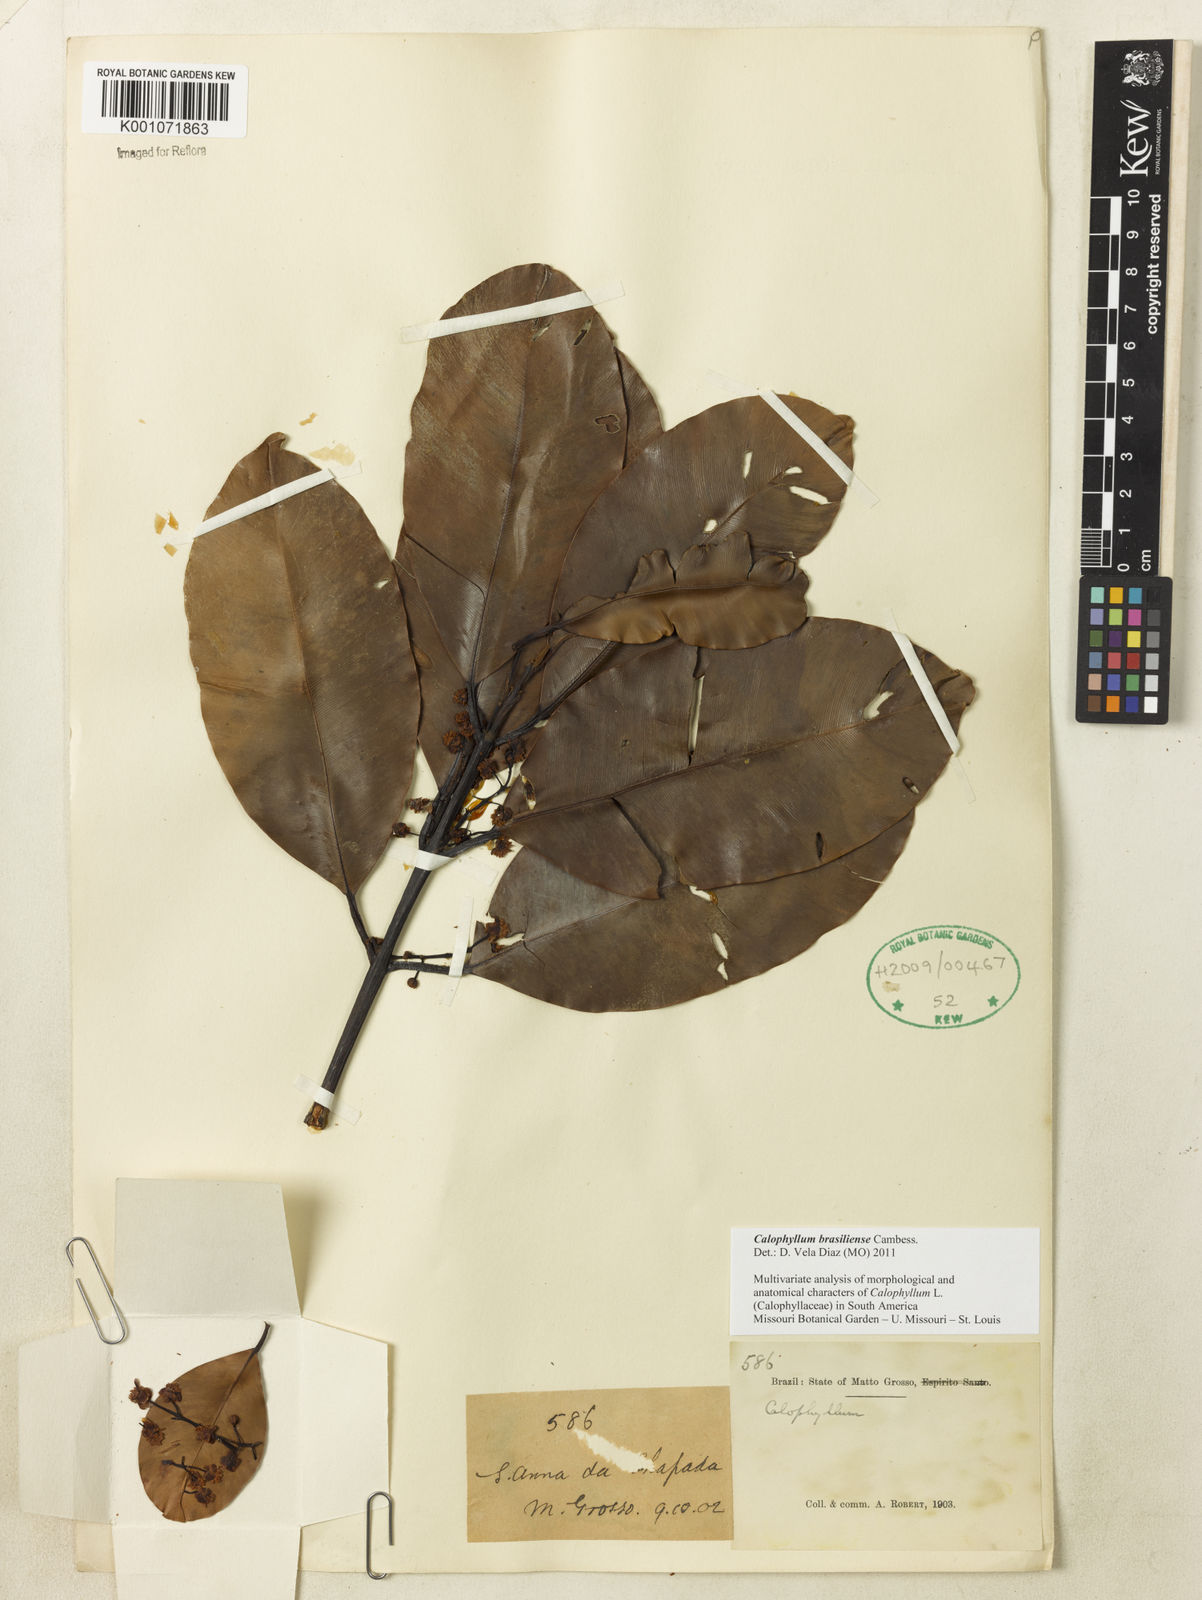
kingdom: Plantae
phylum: Tracheophyta
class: Magnoliopsida
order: Malpighiales
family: Calophyllaceae
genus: Calophyllum
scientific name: Calophyllum brasiliense
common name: Santa maria
